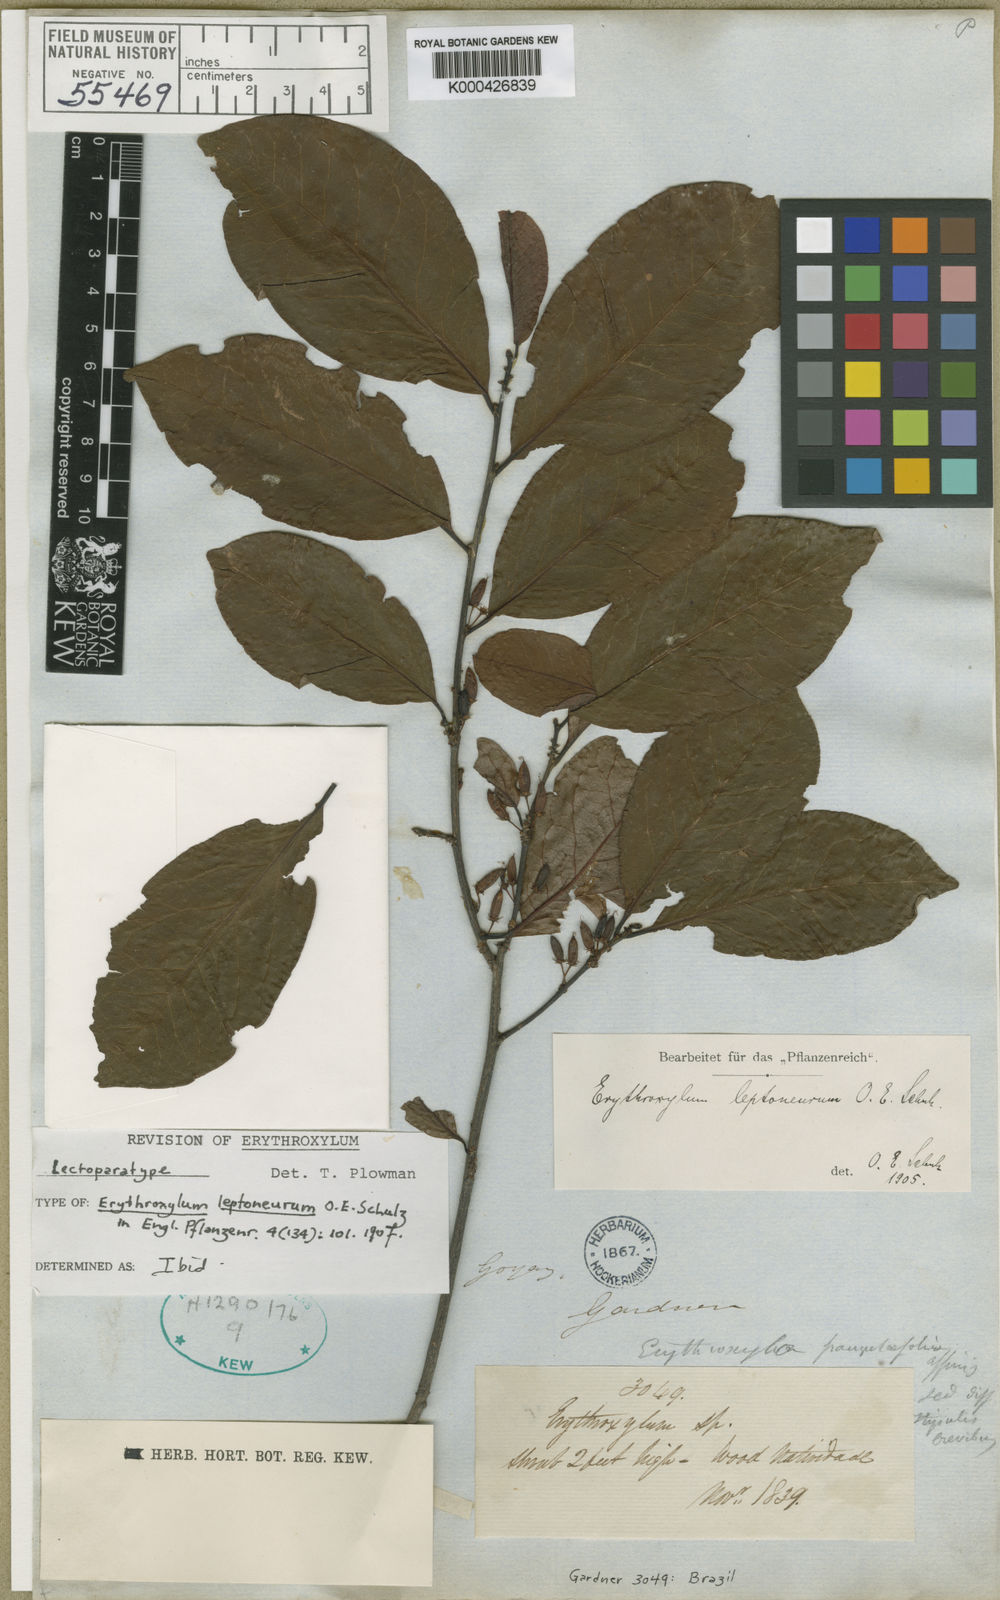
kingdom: Plantae
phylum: Tracheophyta
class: Magnoliopsida
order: Malpighiales
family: Erythroxylaceae
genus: Erythroxylum
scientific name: Erythroxylum leptoneurum
